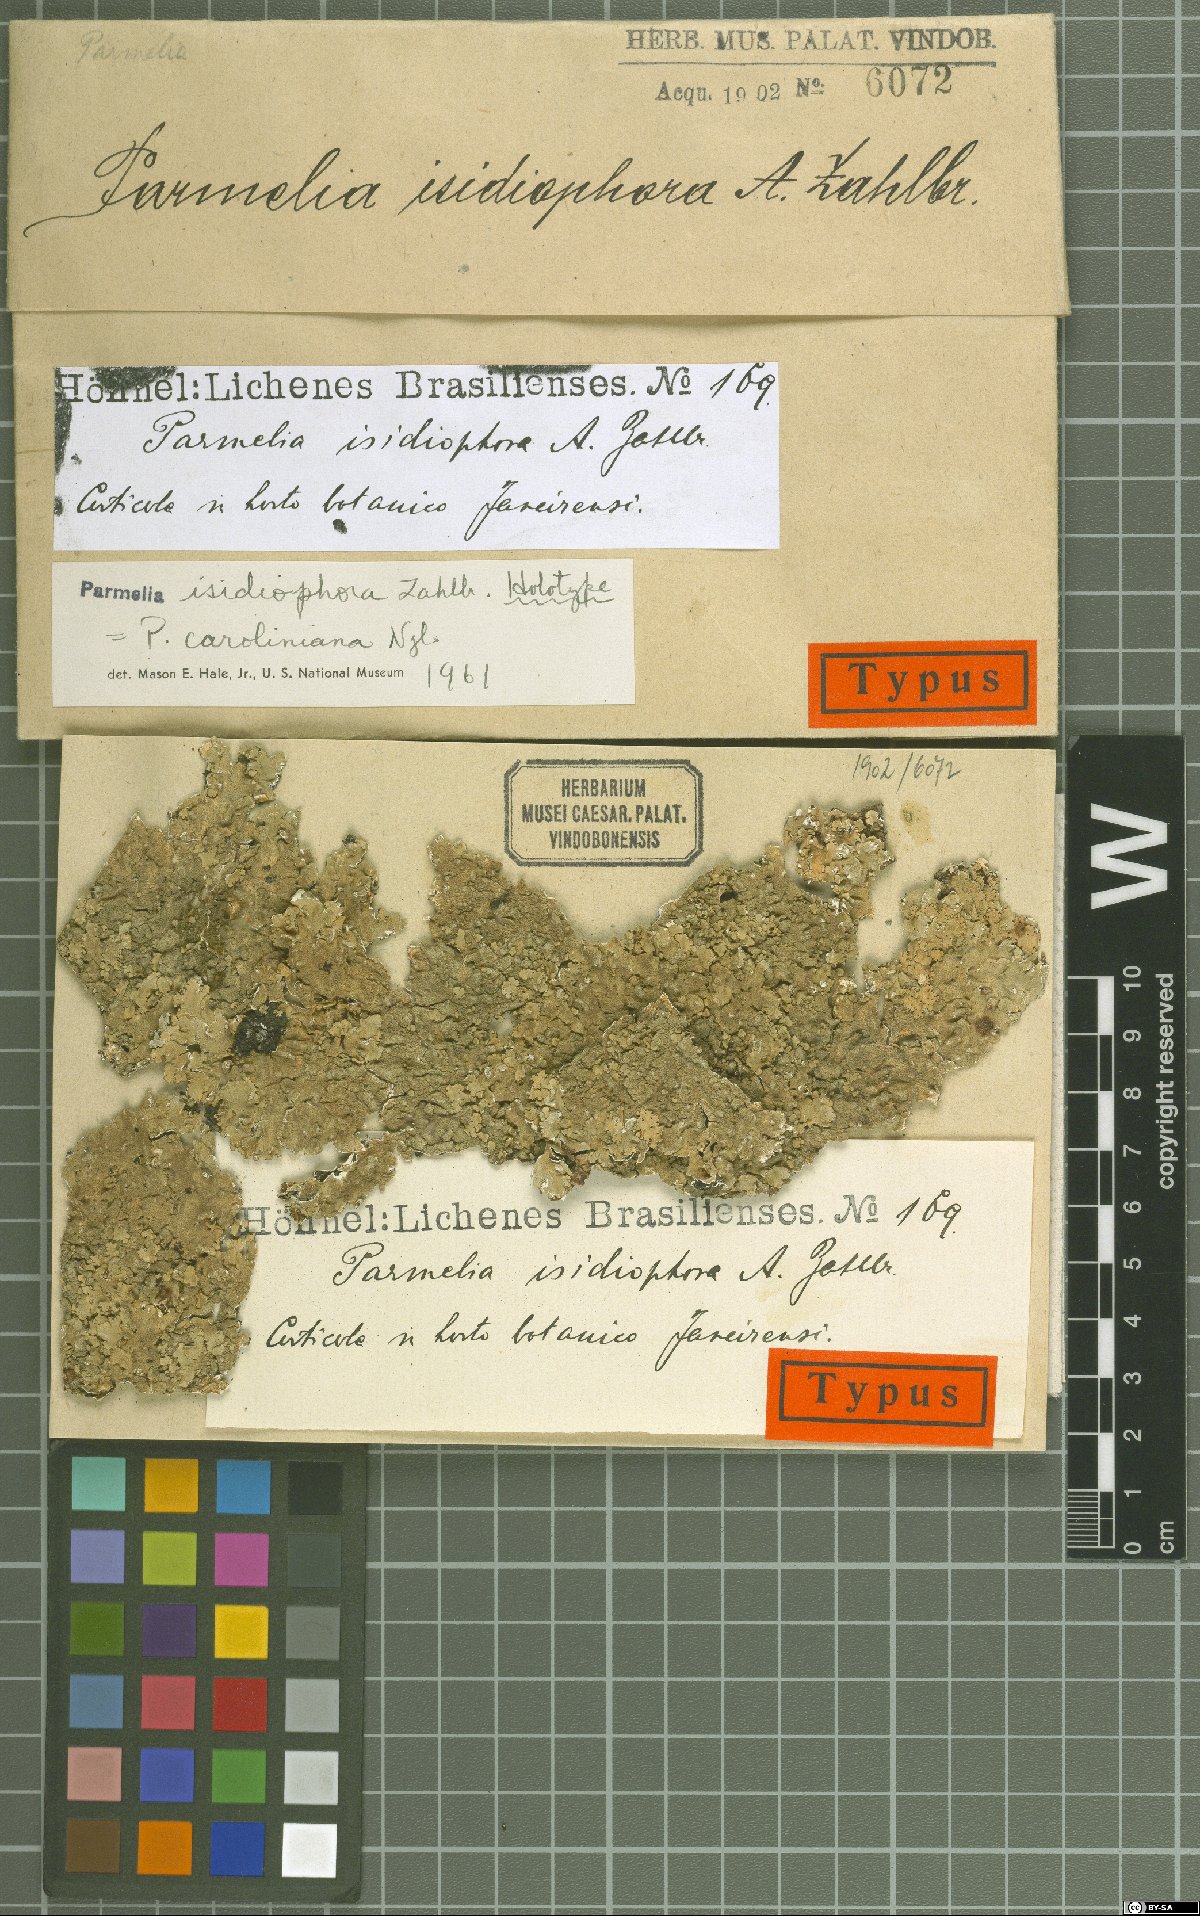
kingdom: Fungi
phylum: Ascomycota
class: Lecanoromycetes
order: Lecanorales
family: Parmeliaceae
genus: Canoparmelia
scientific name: Canoparmelia caroliniana
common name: Carolina shield lichen
